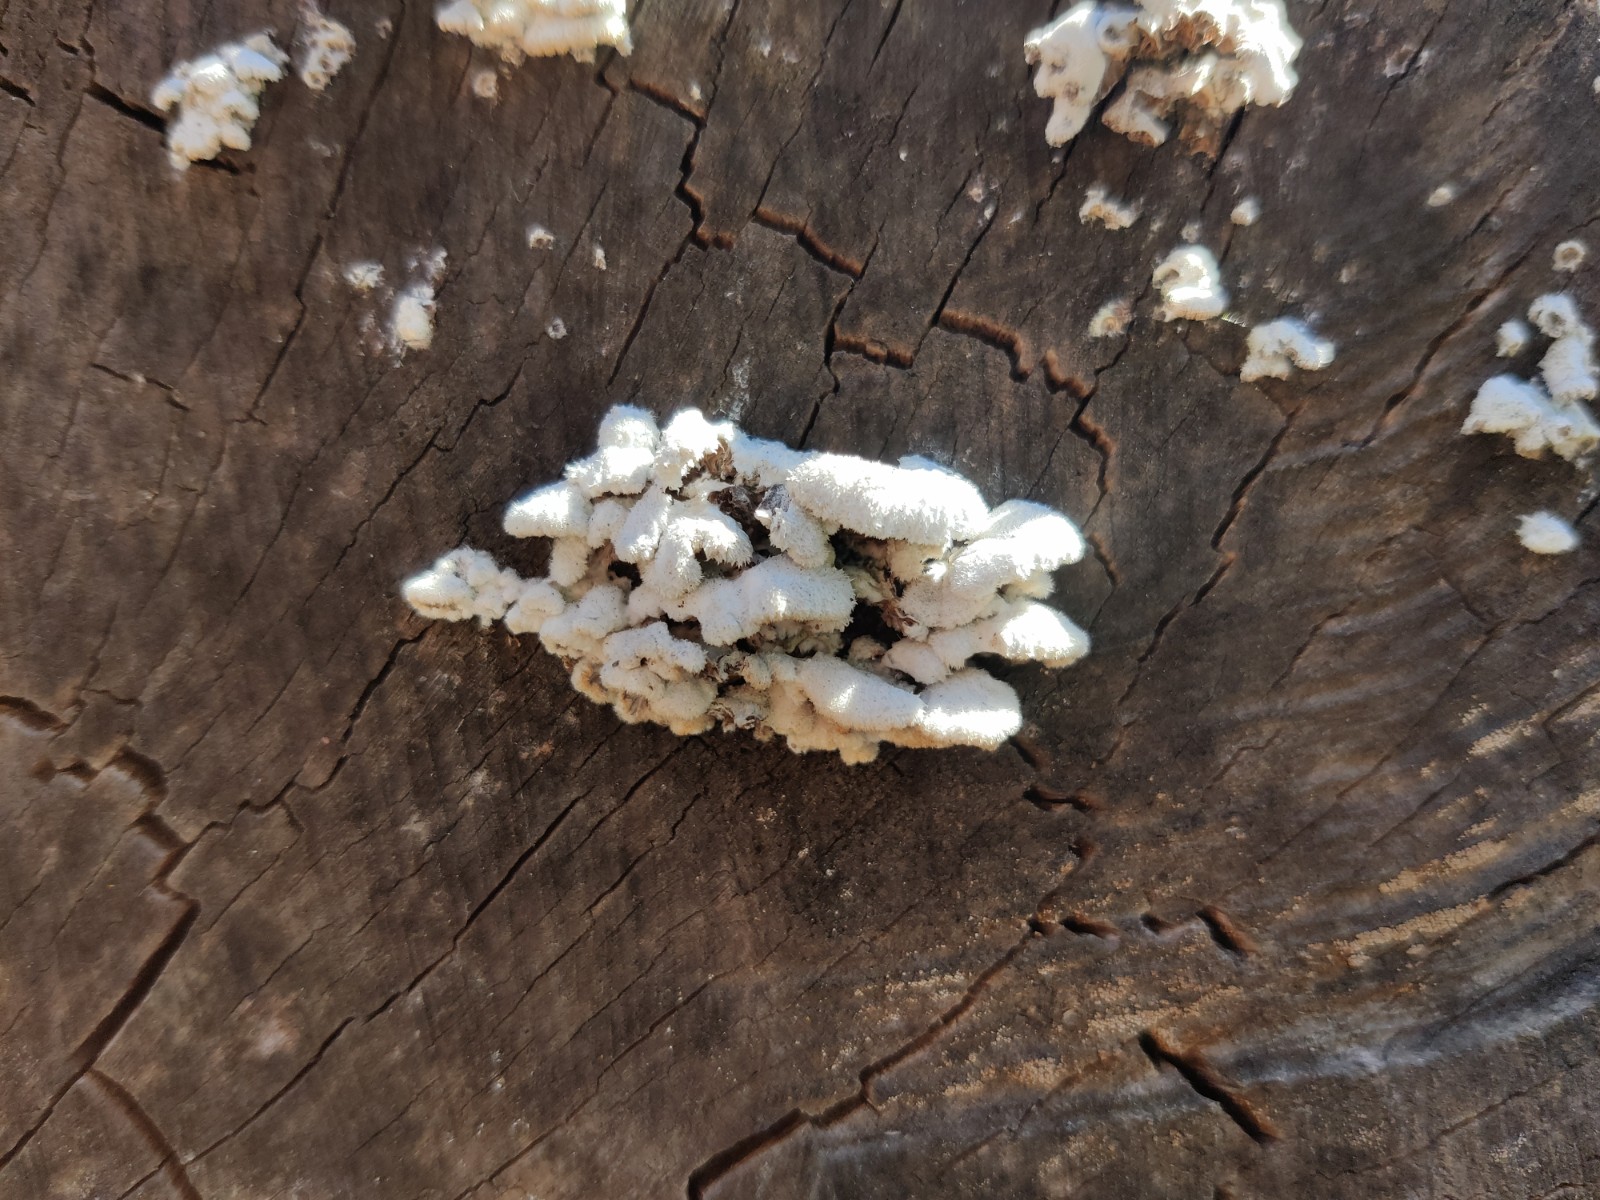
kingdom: Fungi
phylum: Basidiomycota
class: Agaricomycetes
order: Agaricales
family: Schizophyllaceae
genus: Schizophyllum
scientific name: Schizophyllum commune
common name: kløvblad
